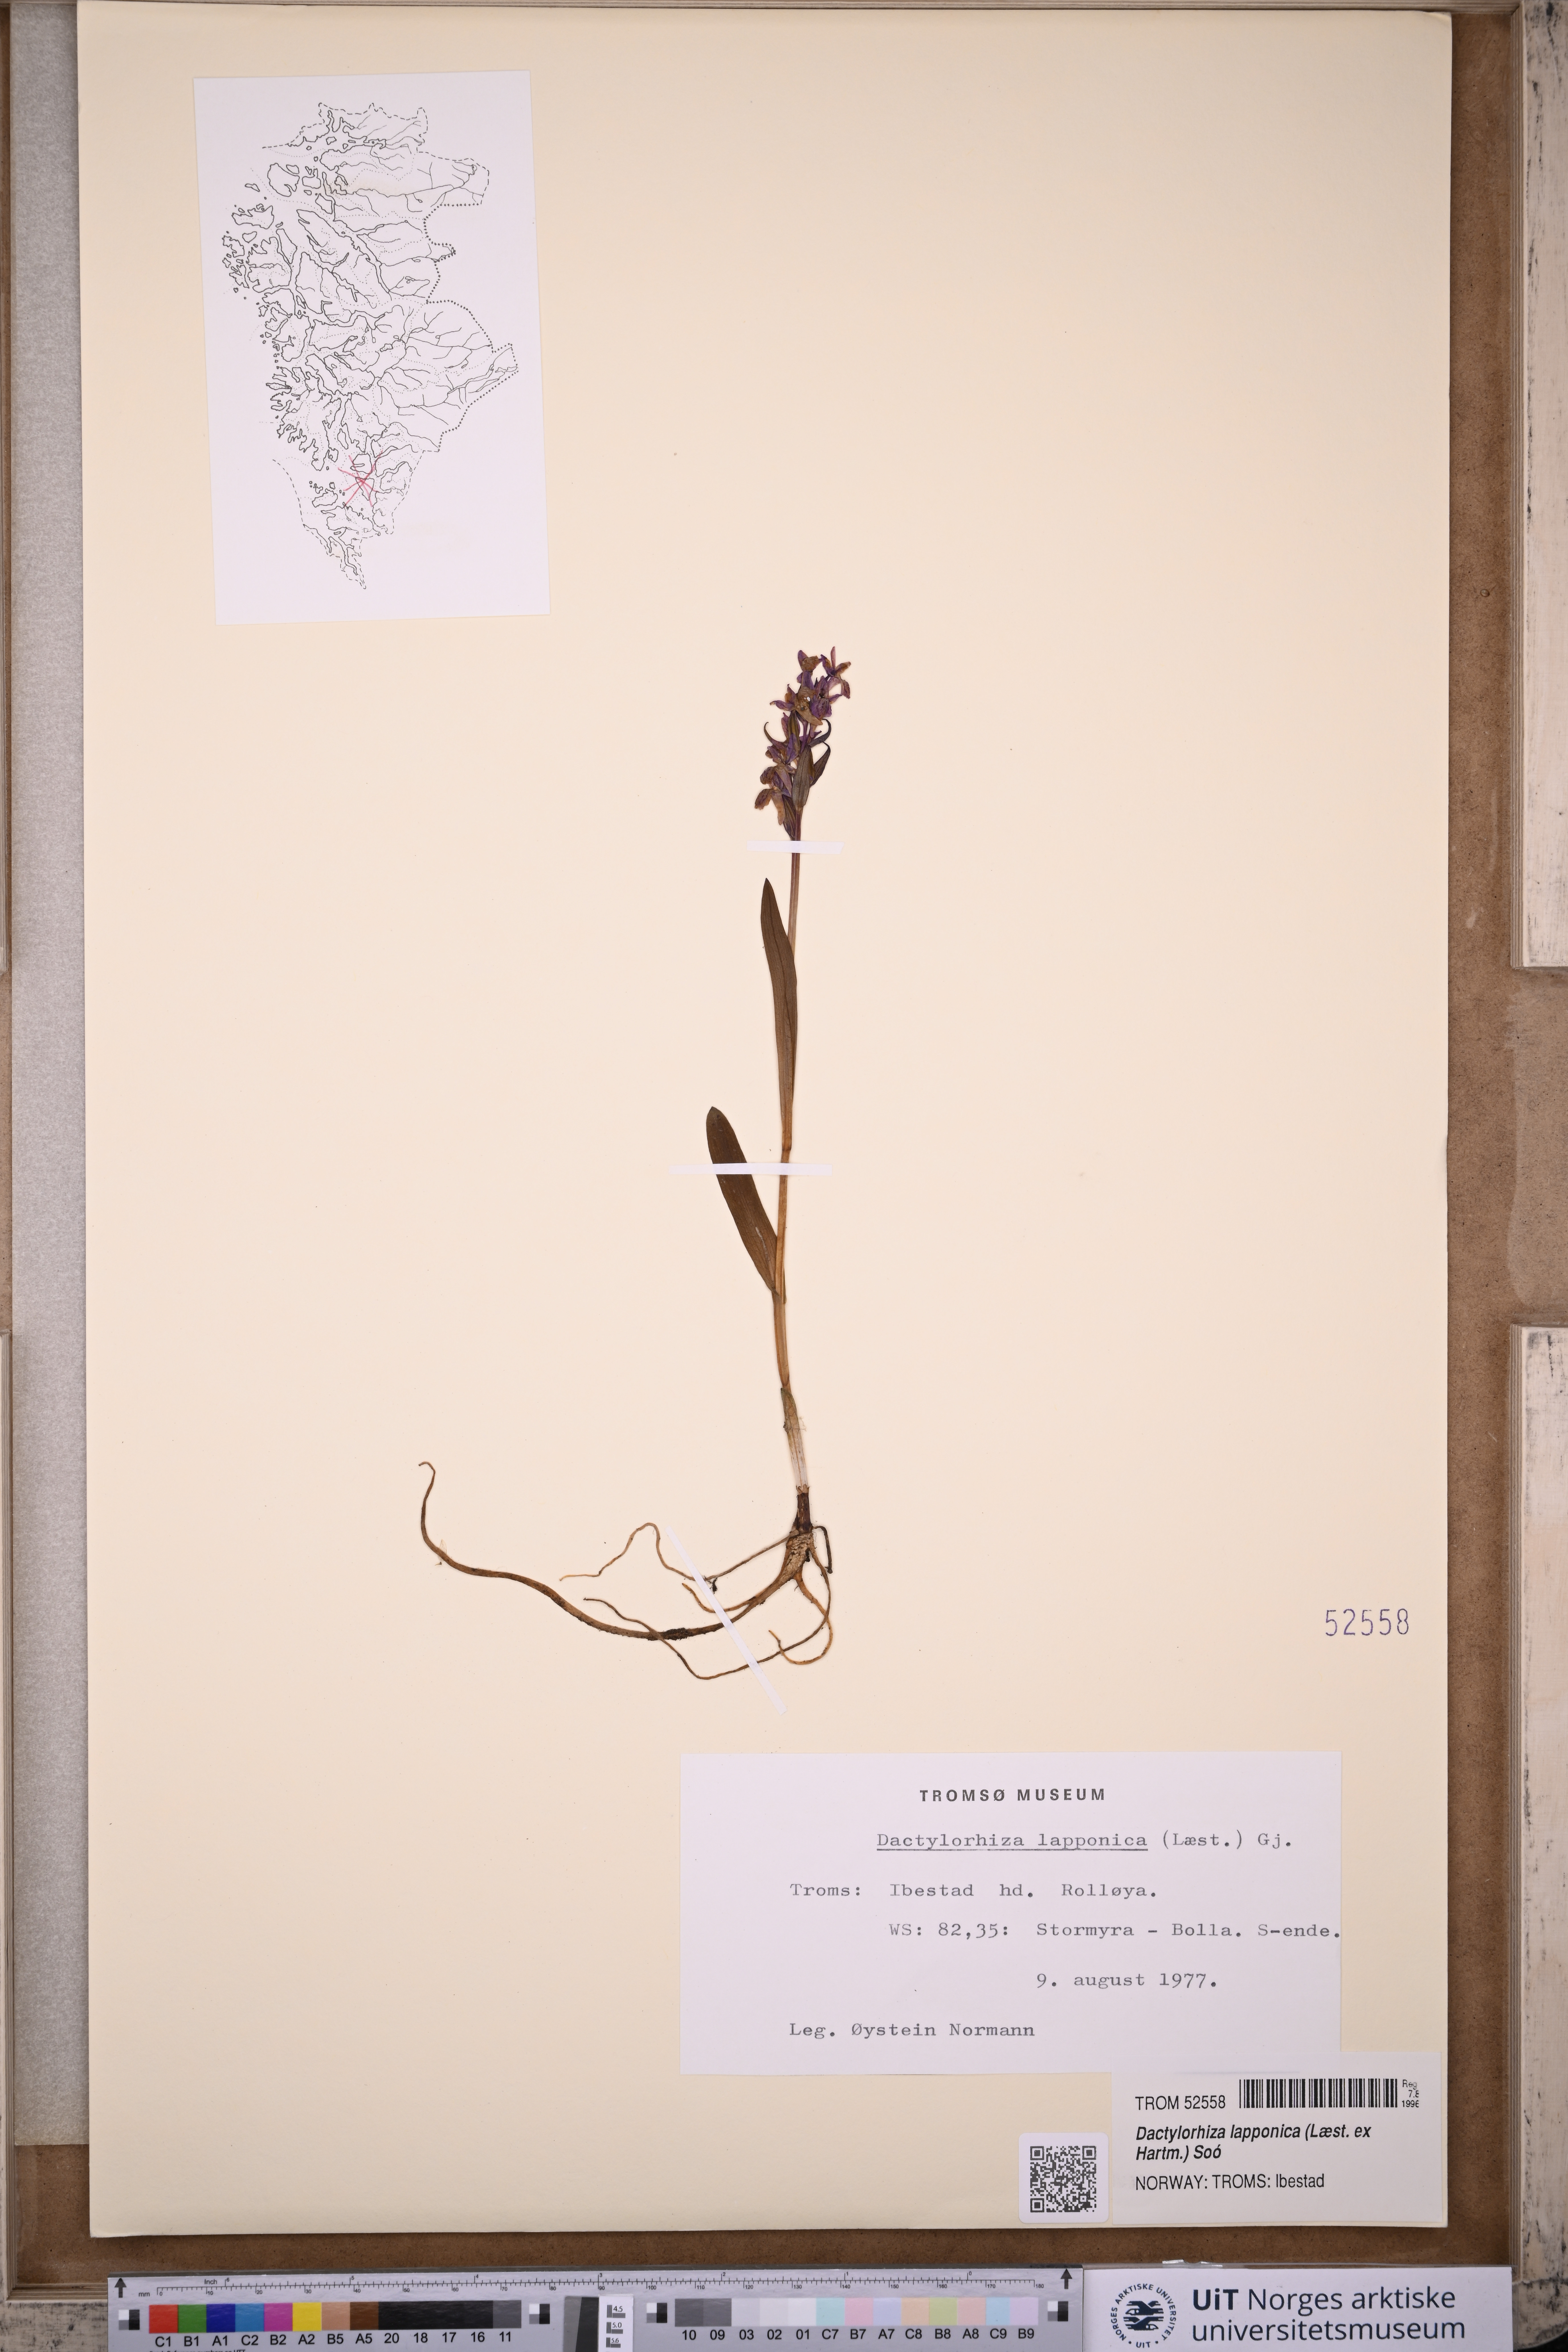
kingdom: Plantae
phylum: Tracheophyta
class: Liliopsida
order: Asparagales
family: Orchidaceae
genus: Dactylorhiza
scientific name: Dactylorhiza majalis
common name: Marsh orchid
